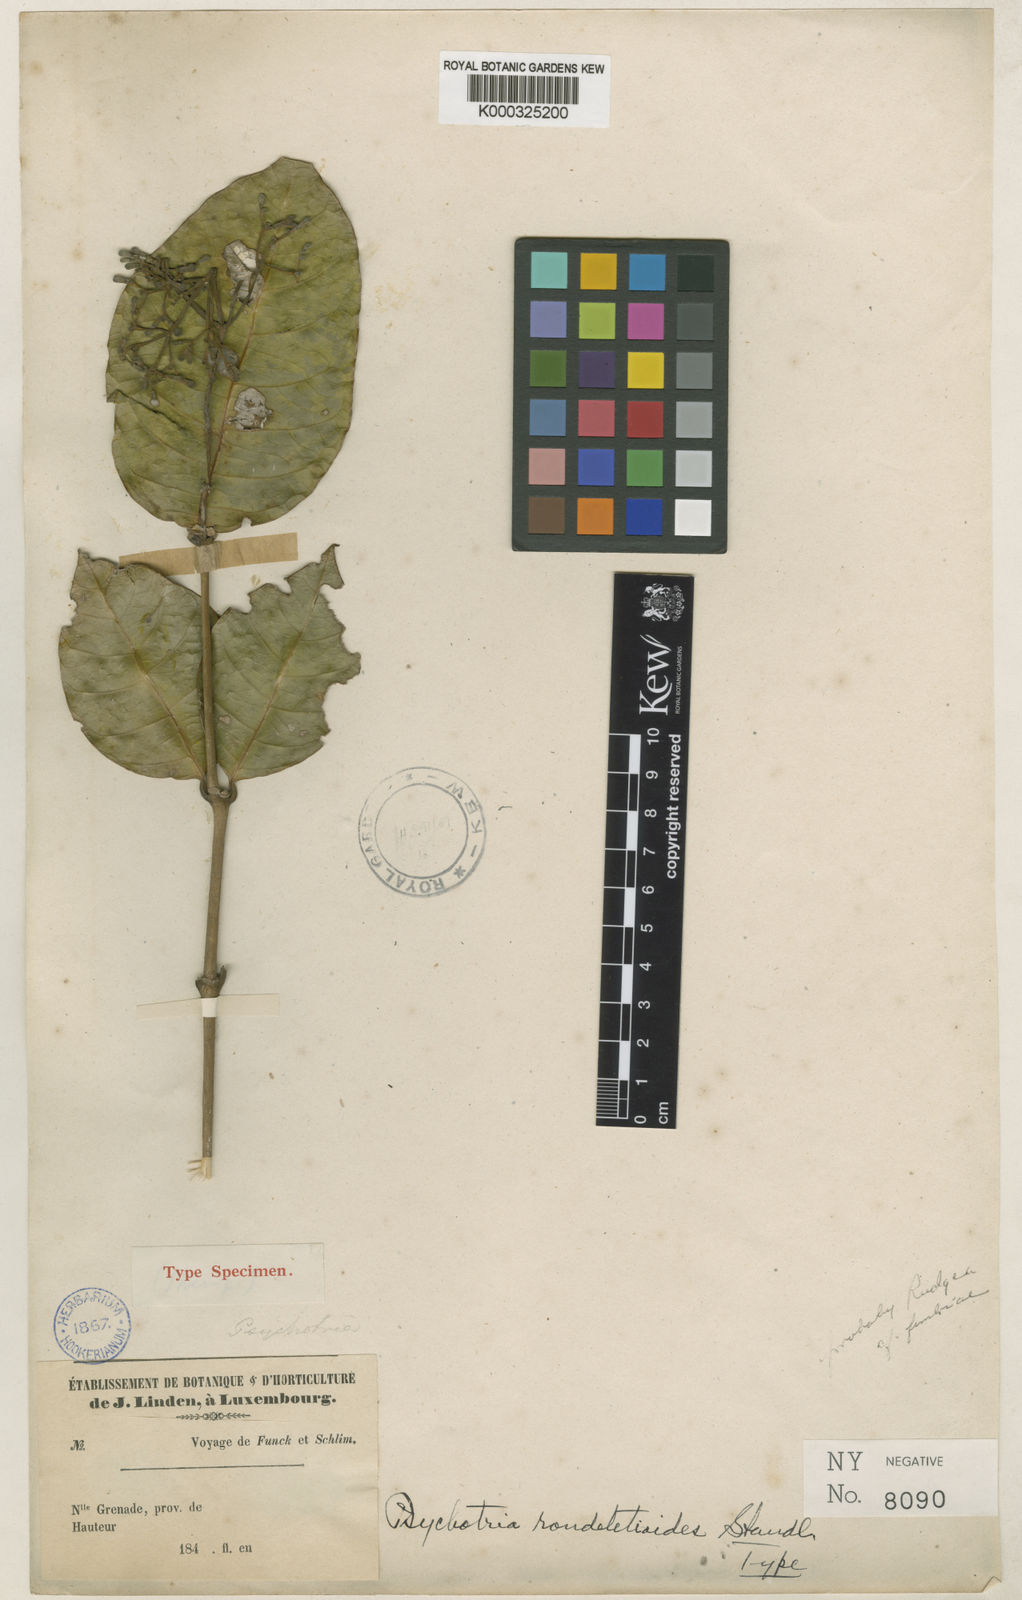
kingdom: Plantae
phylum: Tracheophyta
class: Magnoliopsida
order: Gentianales
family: Rubiaceae
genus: Rudgea
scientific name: Rudgea rondeletioides
